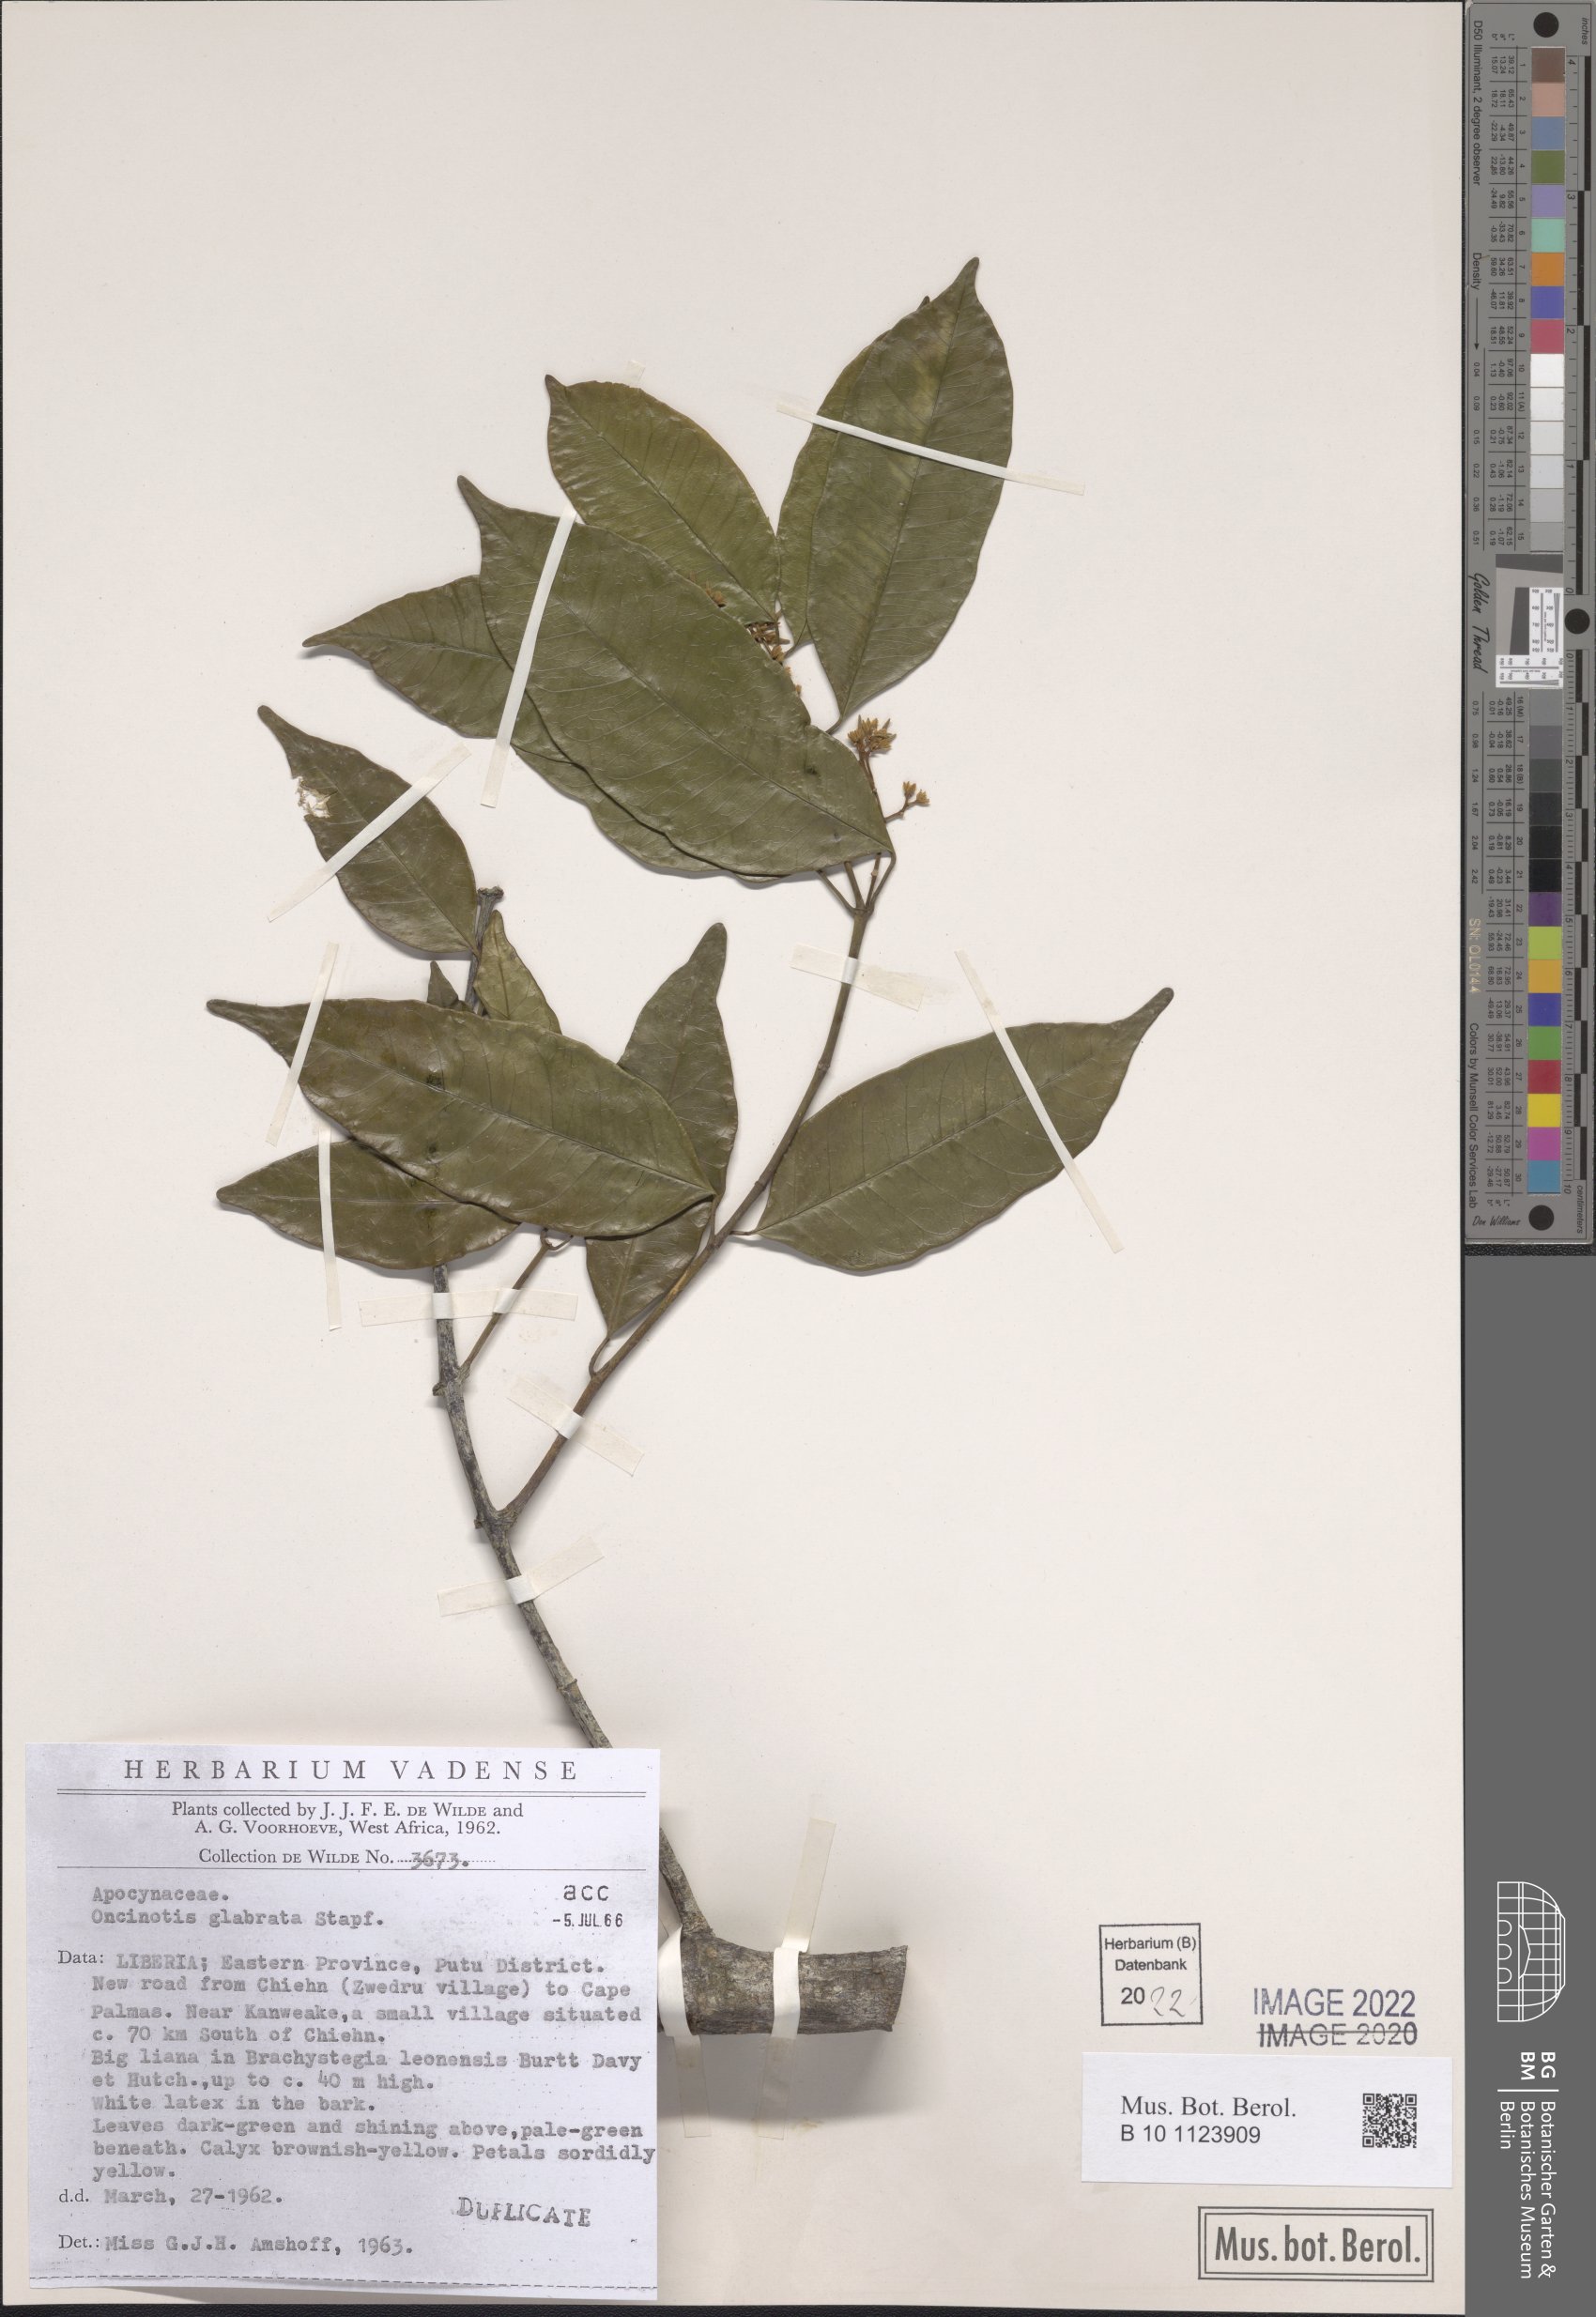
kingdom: Plantae
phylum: Tracheophyta
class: Magnoliopsida
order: Gentianales
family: Apocynaceae
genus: Oncinotis
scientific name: Oncinotis glabrata
